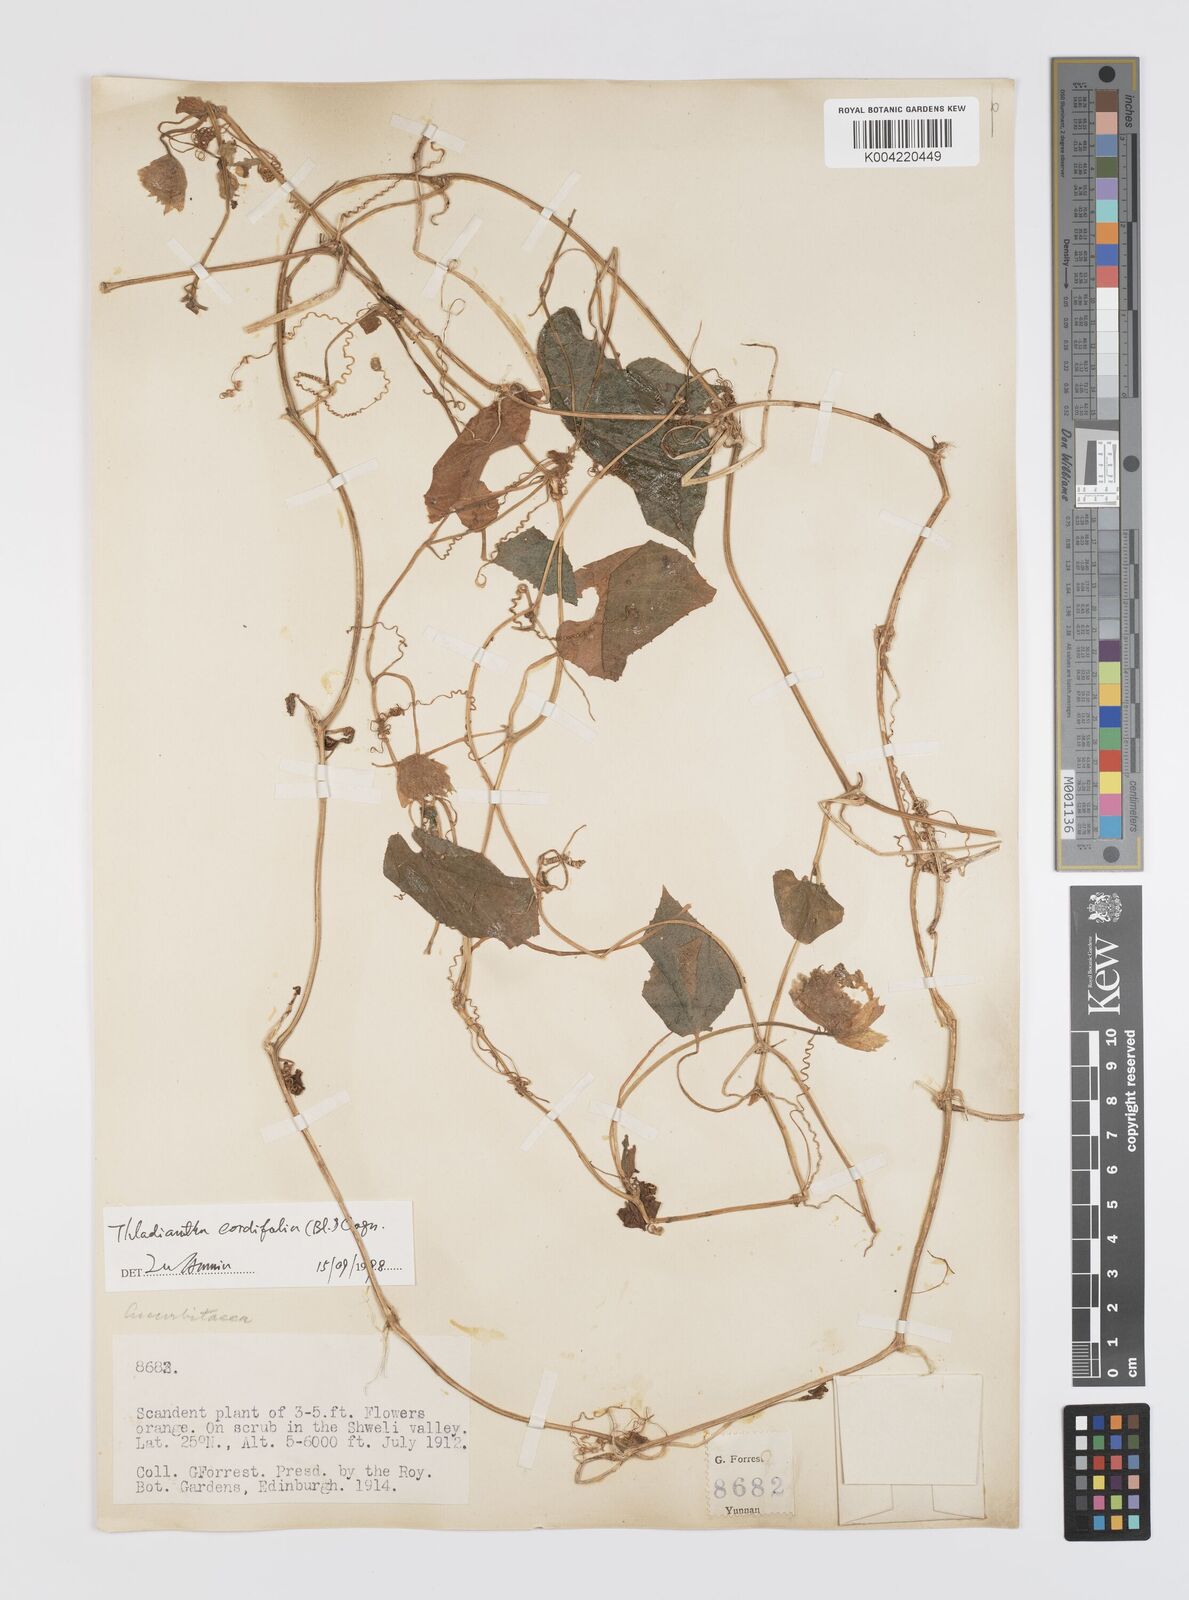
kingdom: Plantae
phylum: Tracheophyta
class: Magnoliopsida
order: Cucurbitales
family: Cucurbitaceae
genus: Thladiantha
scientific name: Thladiantha cordifolia
